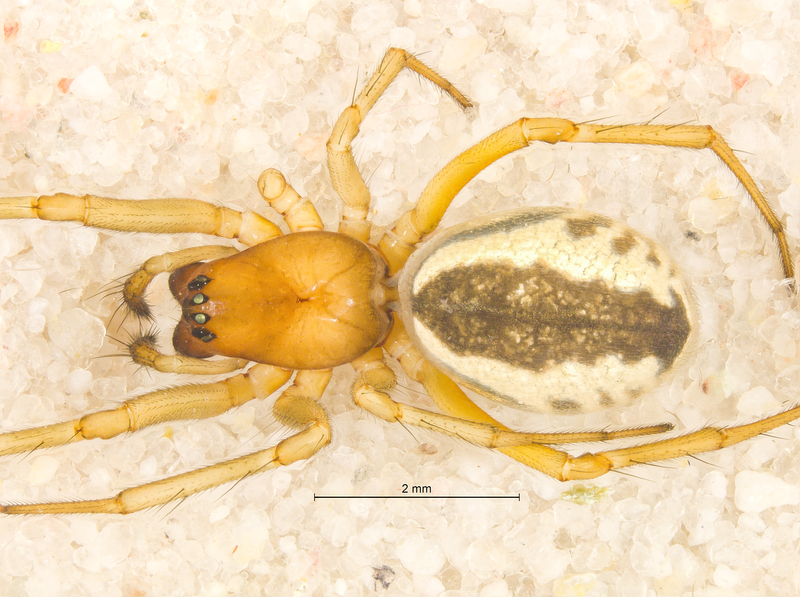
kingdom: Animalia
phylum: Arthropoda
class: Arachnida
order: Araneae
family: Linyphiidae
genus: Frontinellina
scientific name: Frontinellina frutetorum
